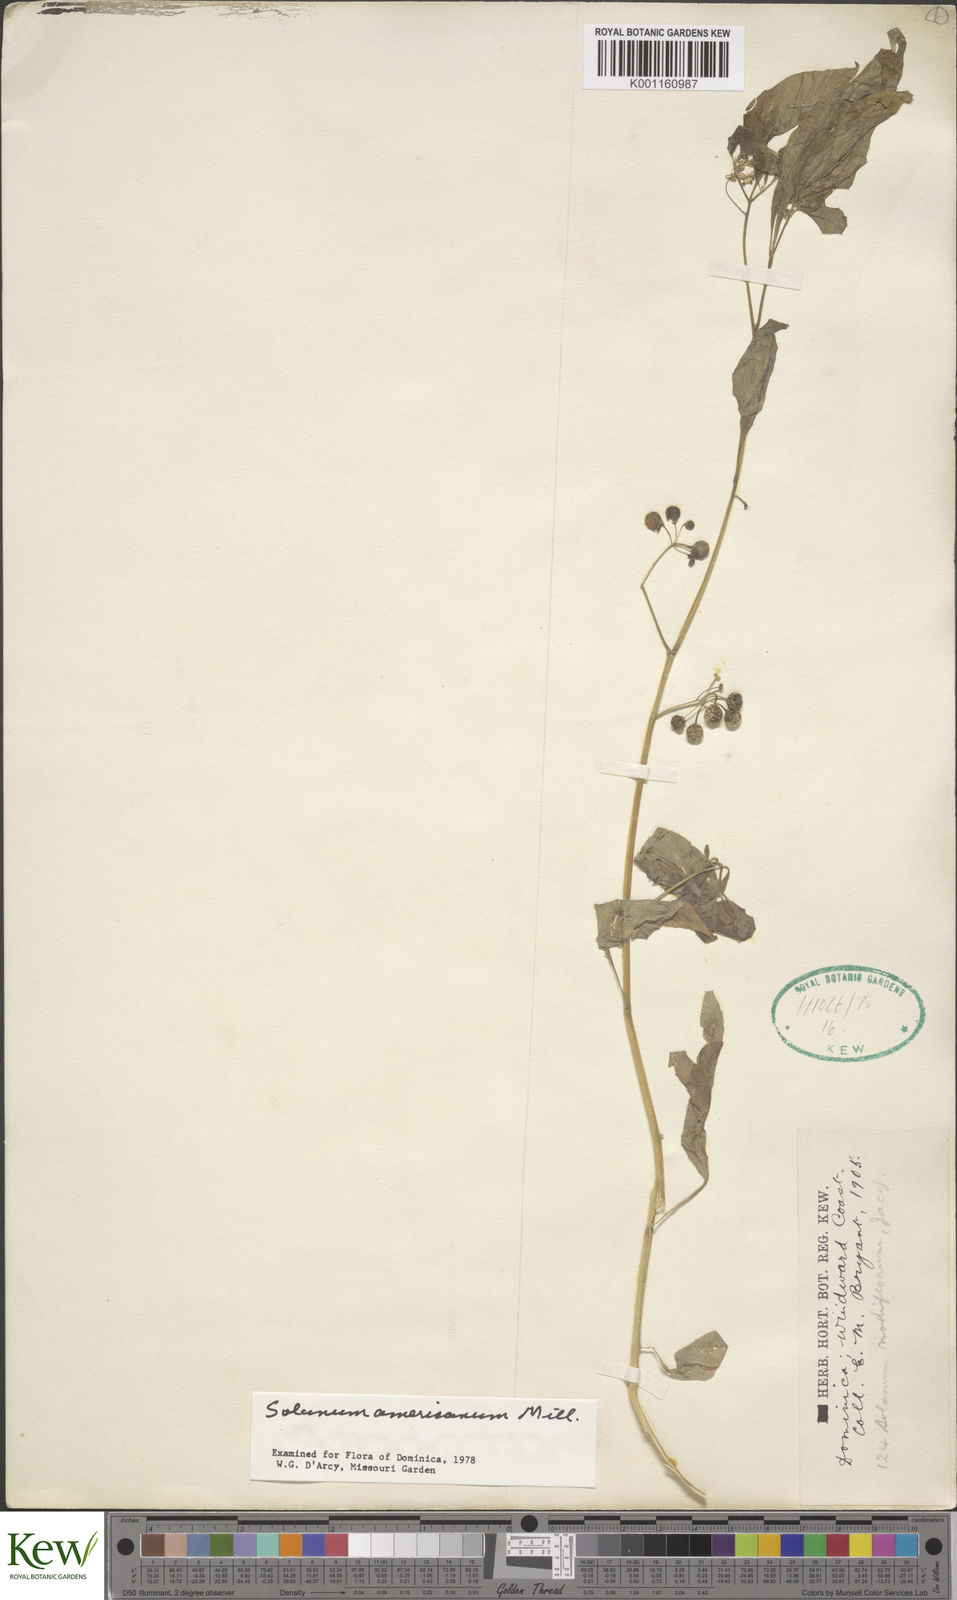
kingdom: Plantae
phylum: Tracheophyta
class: Magnoliopsida
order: Solanales
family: Solanaceae
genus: Solanum
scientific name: Solanum americanum
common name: American black nightshade
